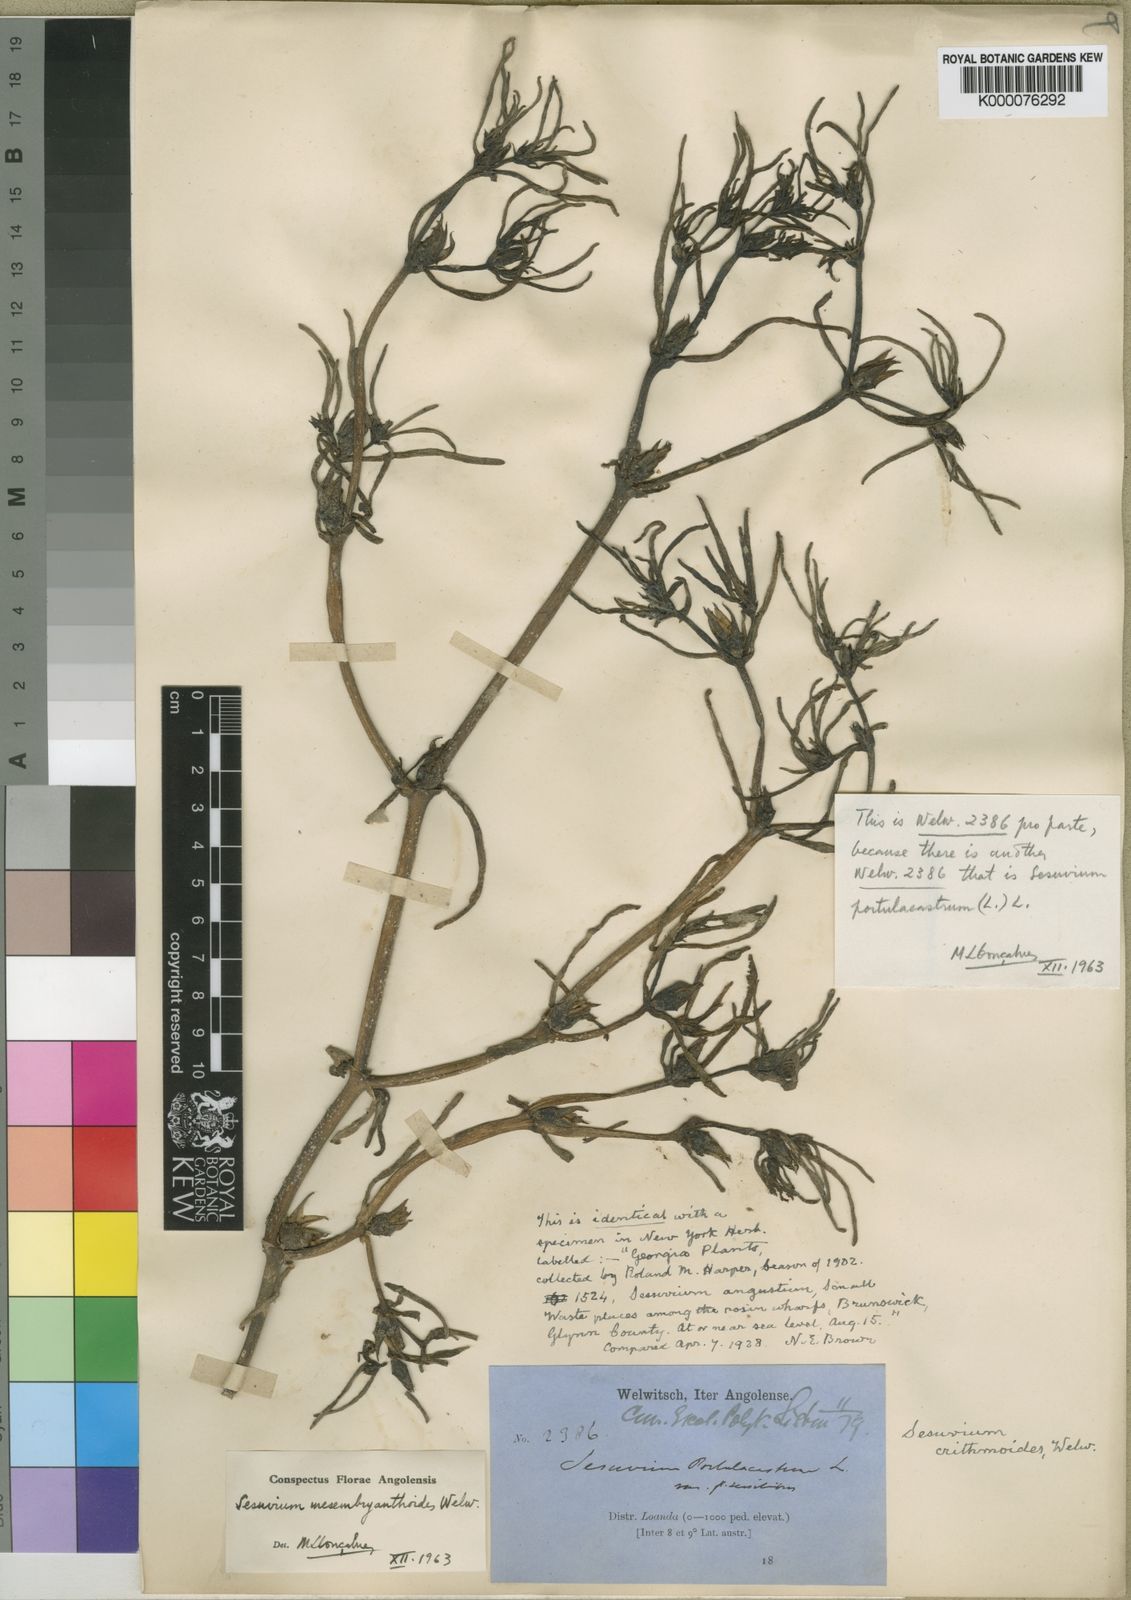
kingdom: Plantae
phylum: Tracheophyta
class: Magnoliopsida
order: Caryophyllales
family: Aizoaceae
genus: Sesuvium
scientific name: Sesuvium crithmoides
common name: Tropical seapurslane
